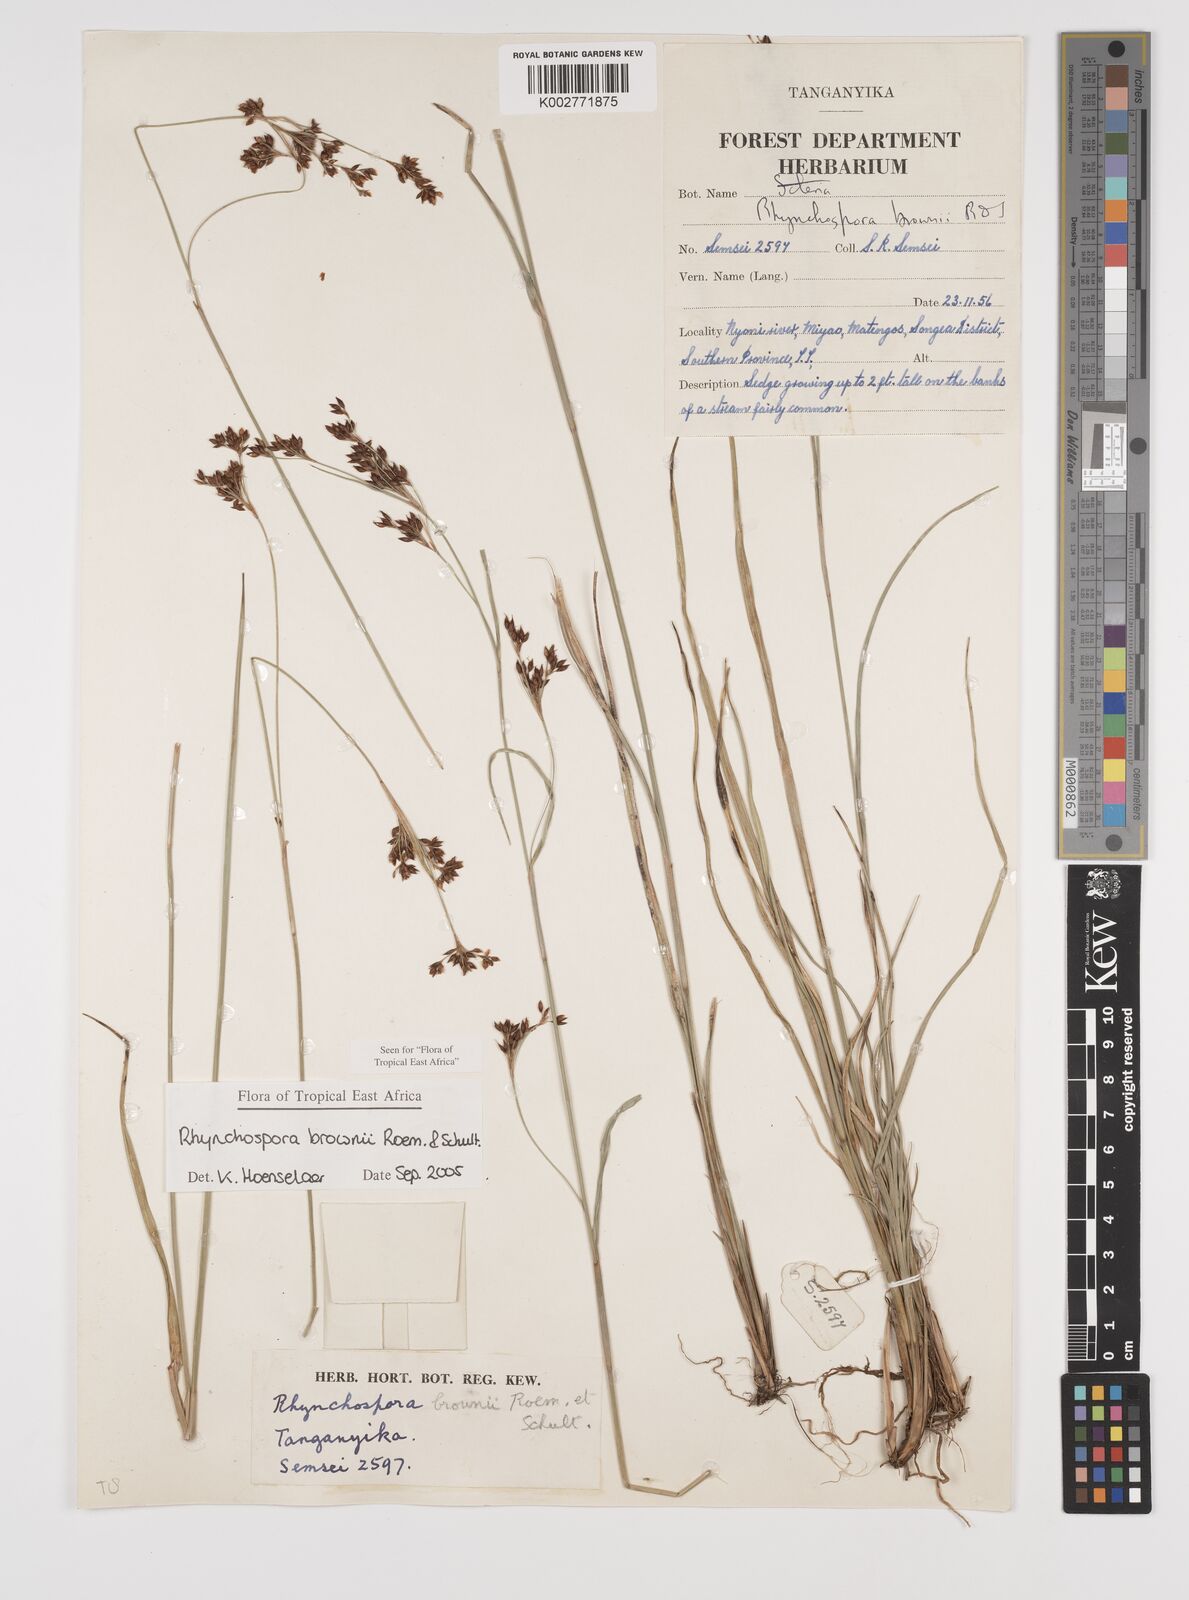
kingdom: Plantae
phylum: Tracheophyta
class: Liliopsida
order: Poales
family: Cyperaceae
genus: Rhynchospora
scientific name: Rhynchospora brownii
